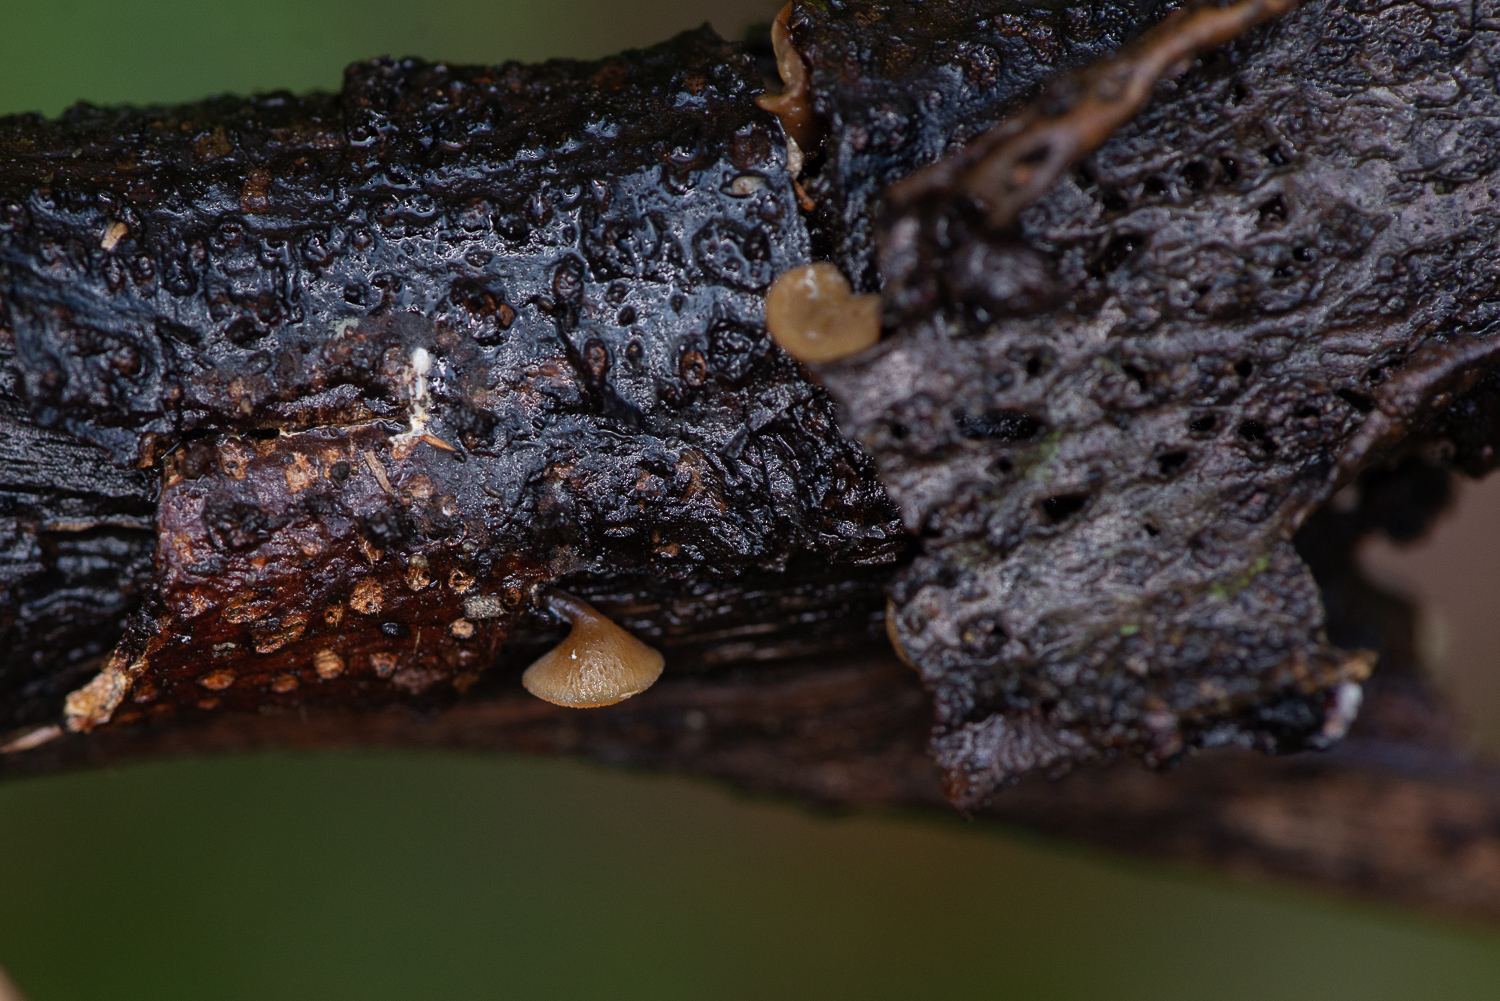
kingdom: Fungi
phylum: Ascomycota
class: Leotiomycetes
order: Helotiales
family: Rutstroemiaceae
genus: Rutstroemia
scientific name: Rutstroemia firma
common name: gren-brunskive
